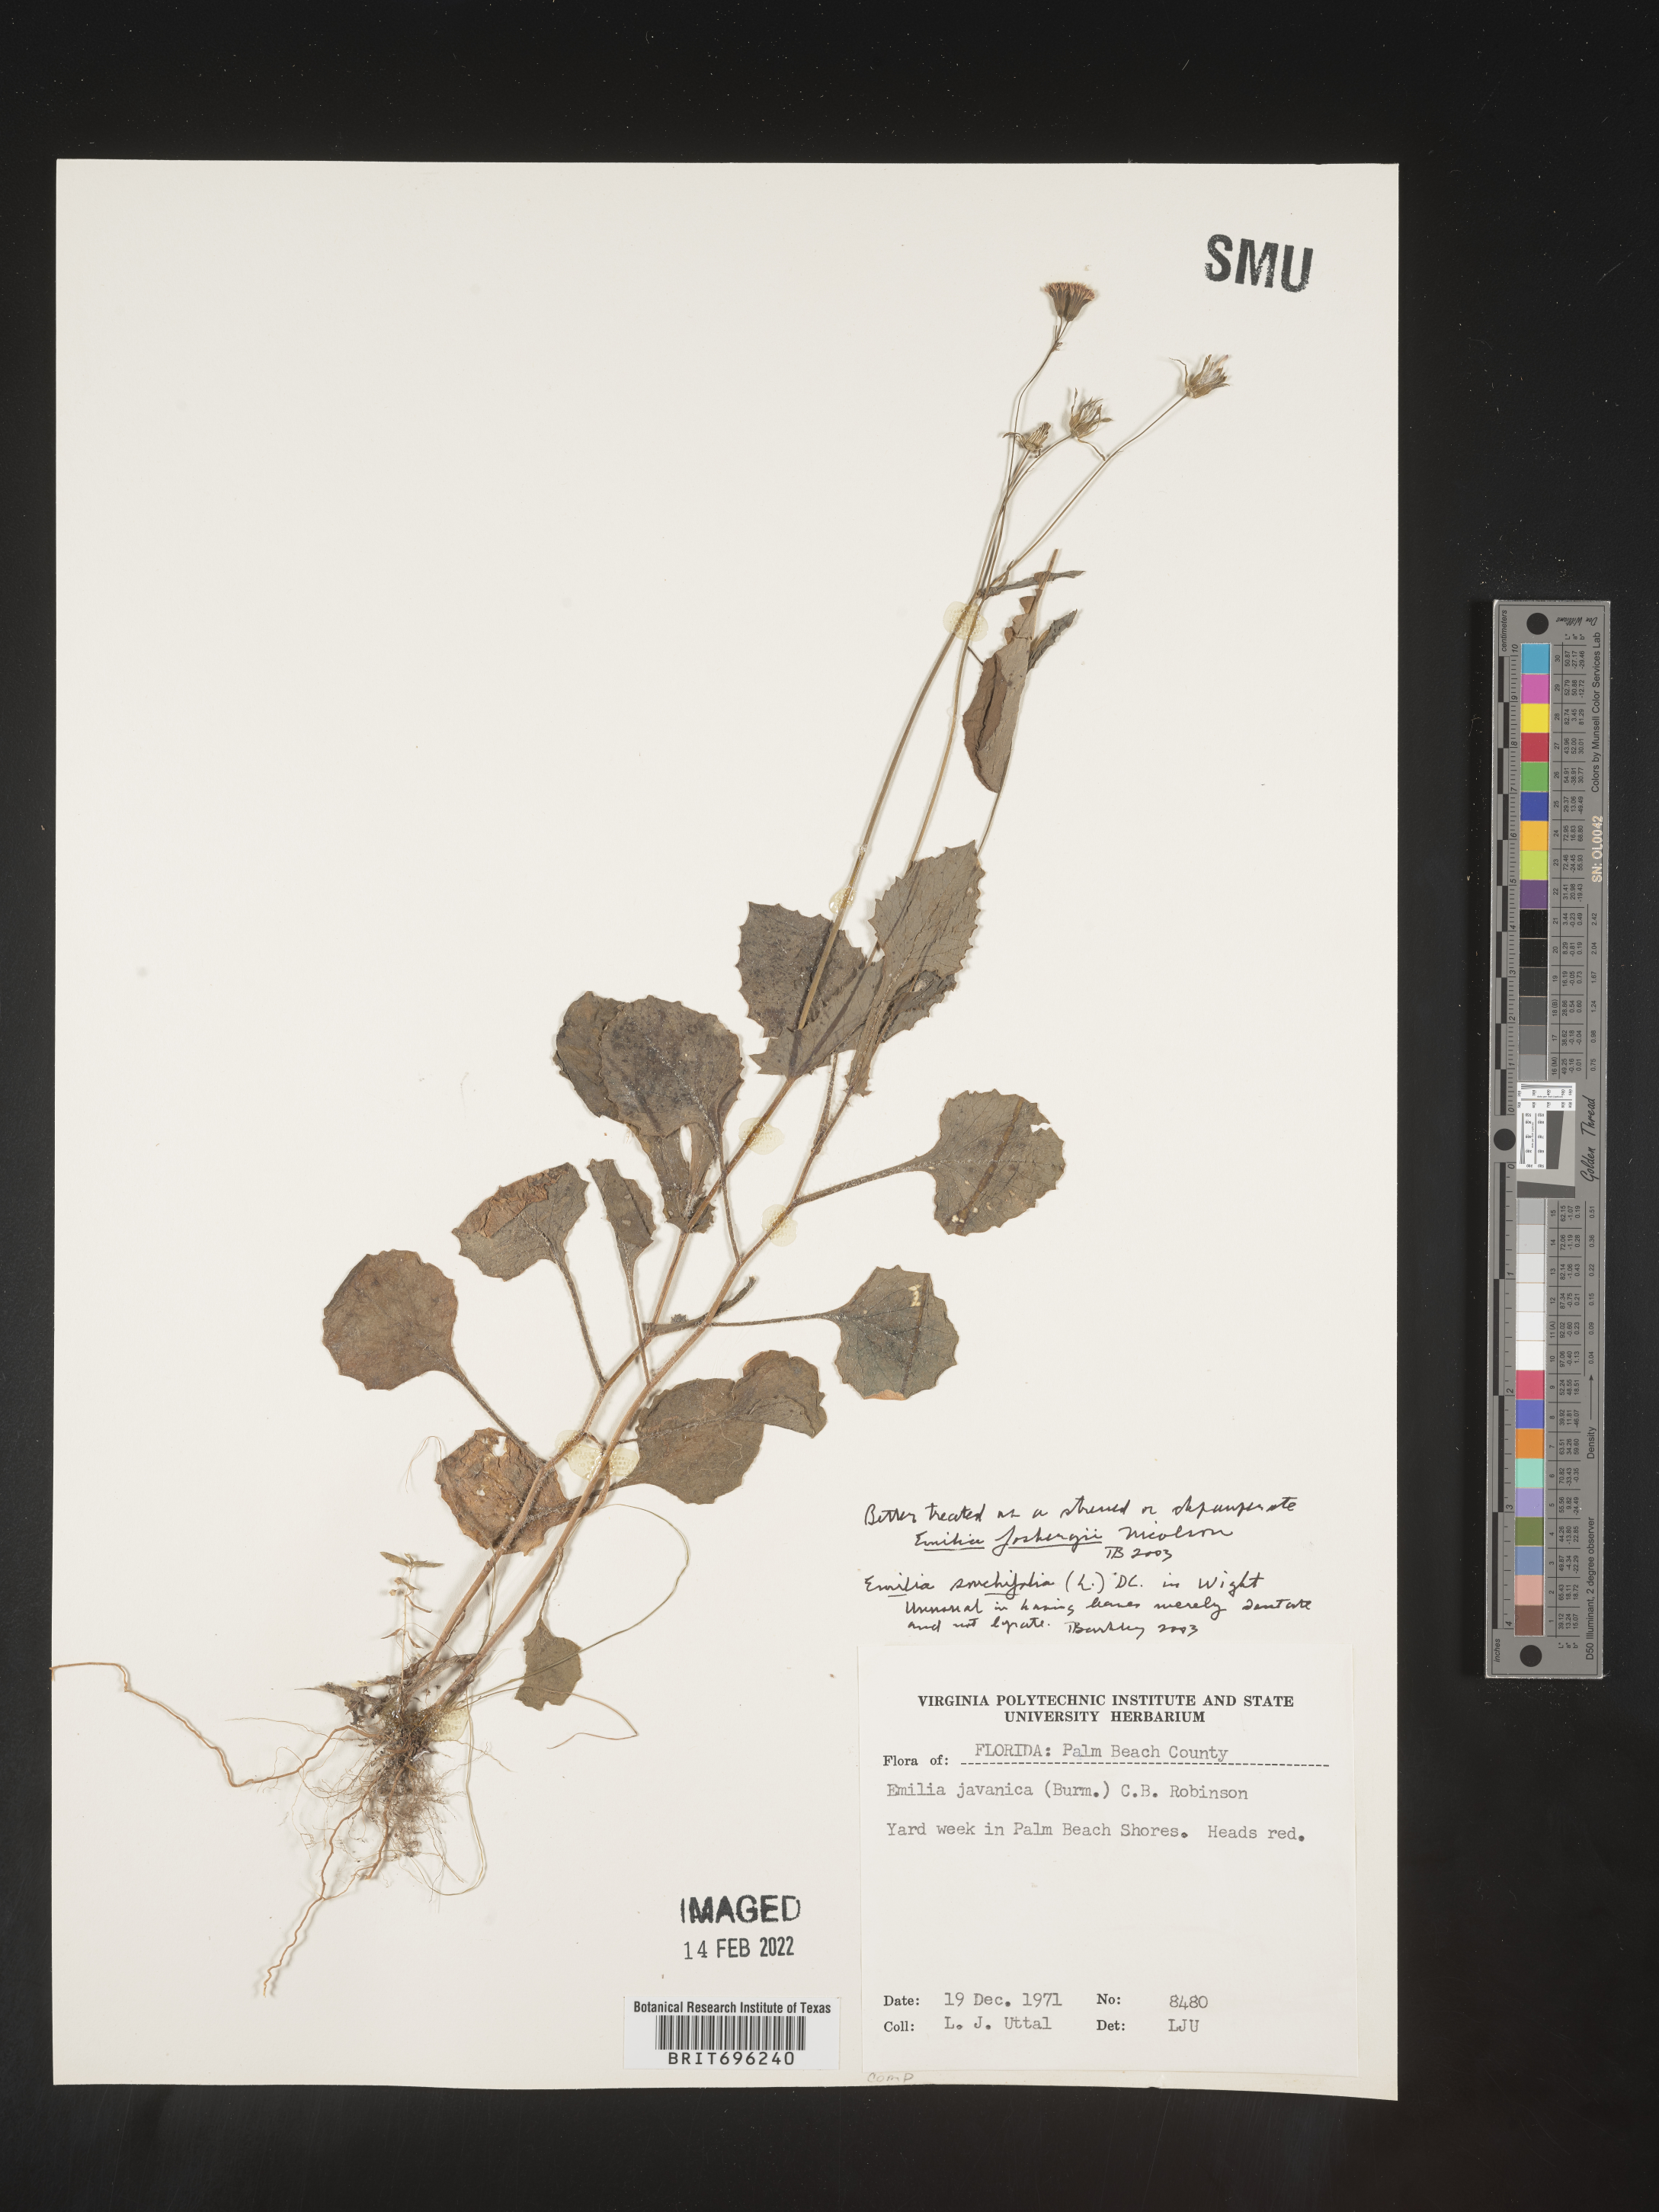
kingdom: Plantae
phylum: Tracheophyta
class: Magnoliopsida
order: Asterales
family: Asteraceae
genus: Emilia
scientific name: Emilia fosbergii
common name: Florida tasselflower
